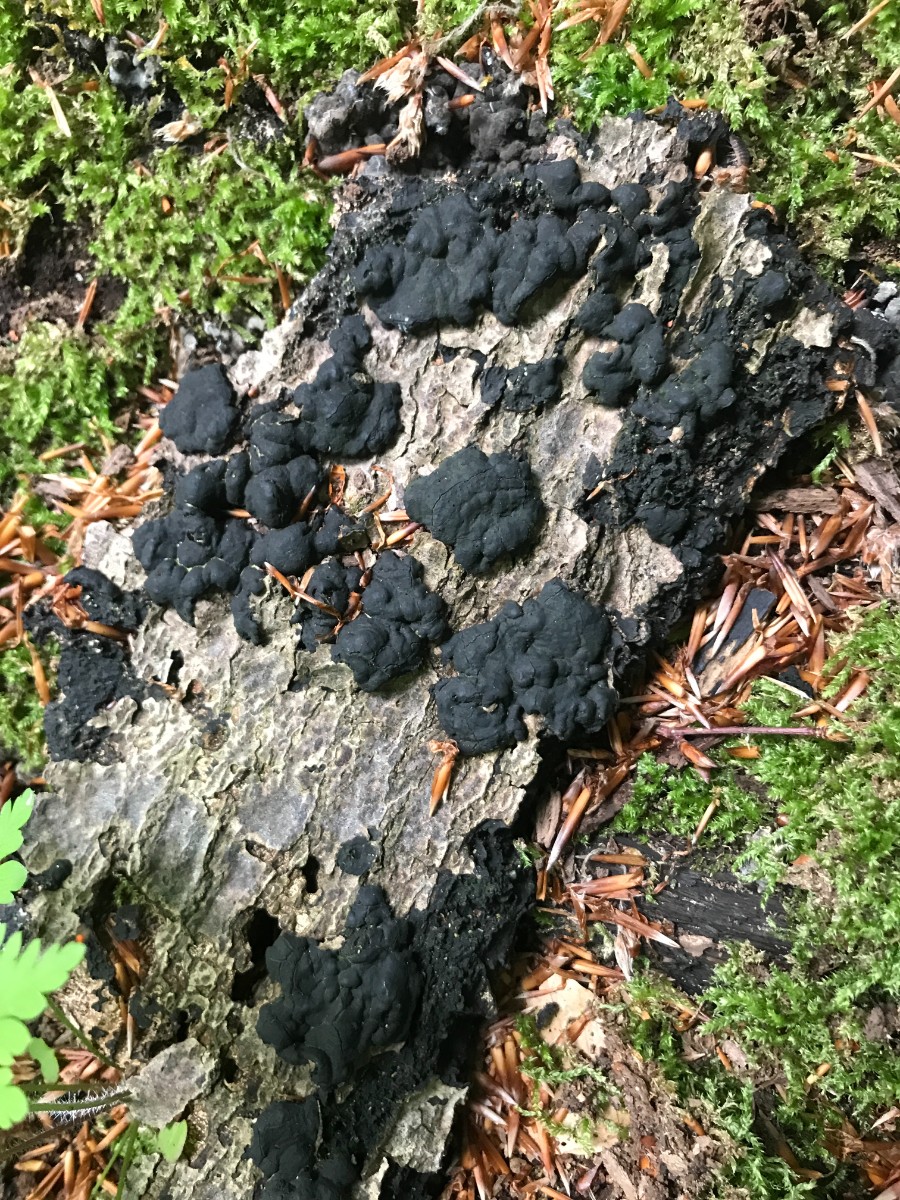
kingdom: Fungi
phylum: Ascomycota
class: Sordariomycetes
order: Xylariales
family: Xylariaceae
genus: Kretzschmaria
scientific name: Kretzschmaria deusta
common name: stor kulsvamp
